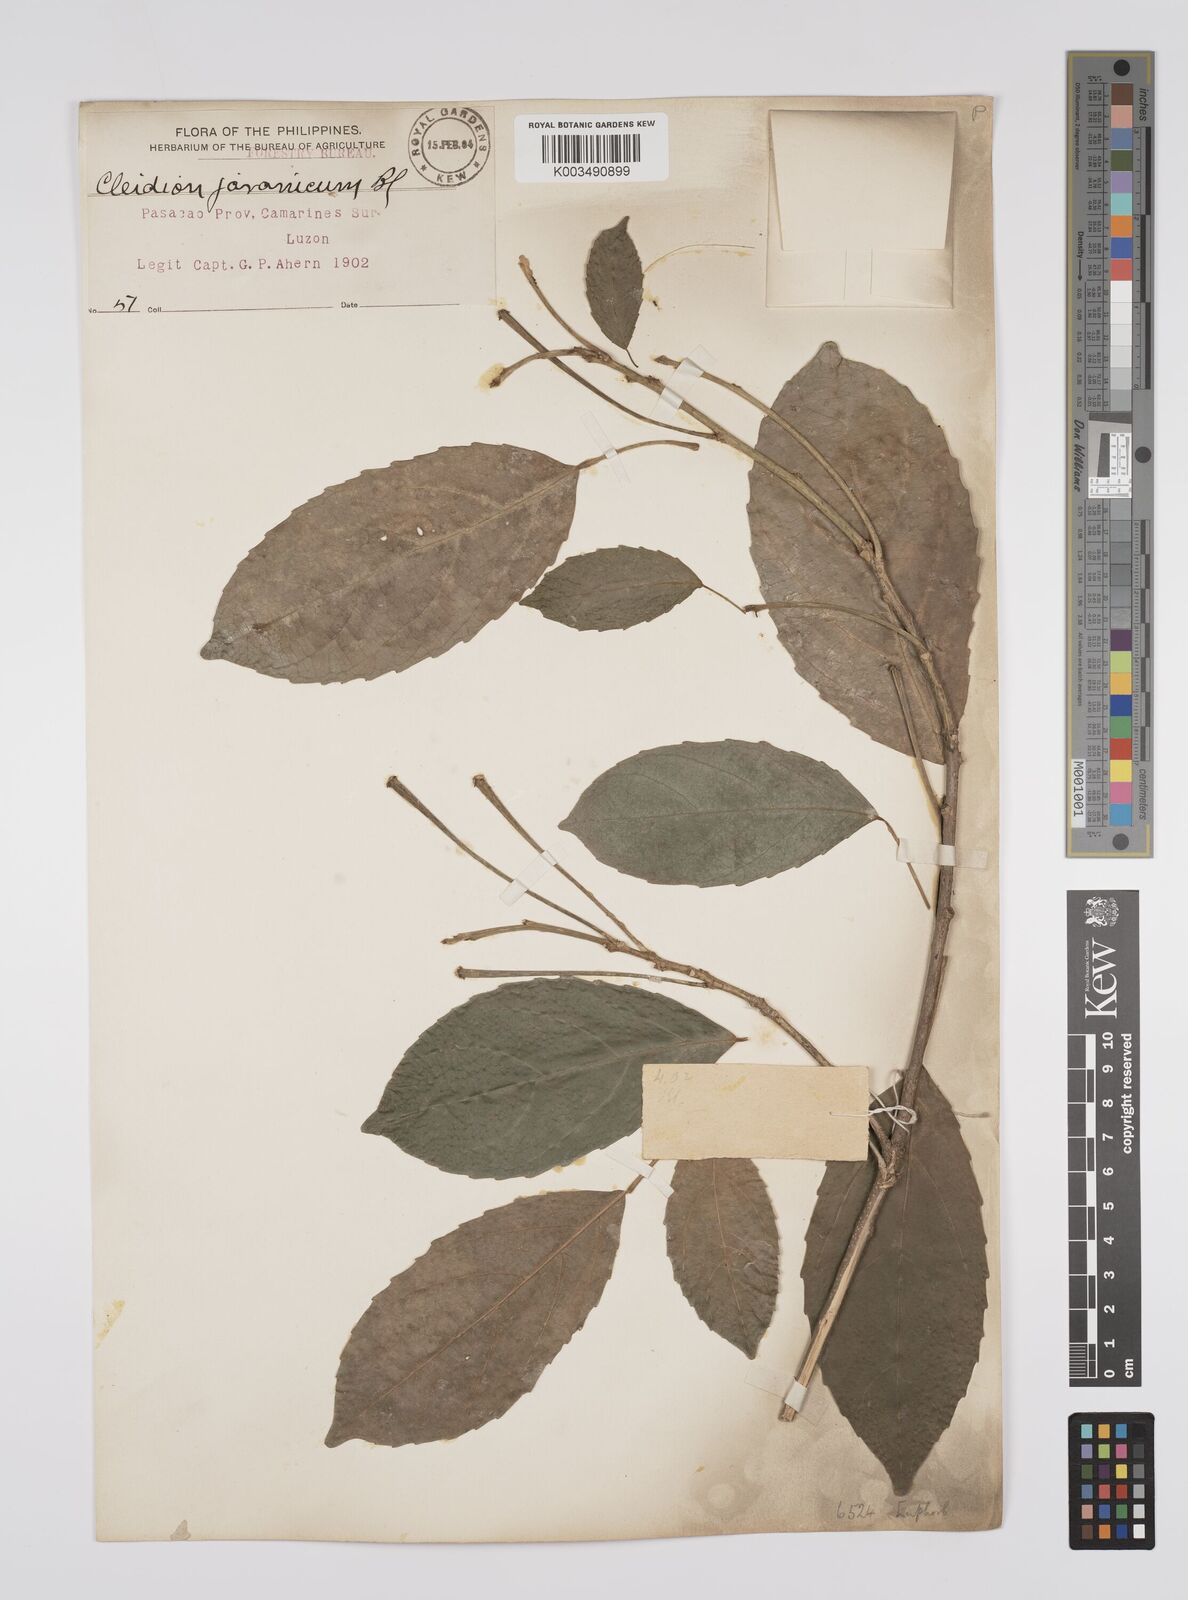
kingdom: Plantae
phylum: Tracheophyta
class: Magnoliopsida
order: Malpighiales
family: Euphorbiaceae
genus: Cleidion
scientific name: Cleidion javanicum
